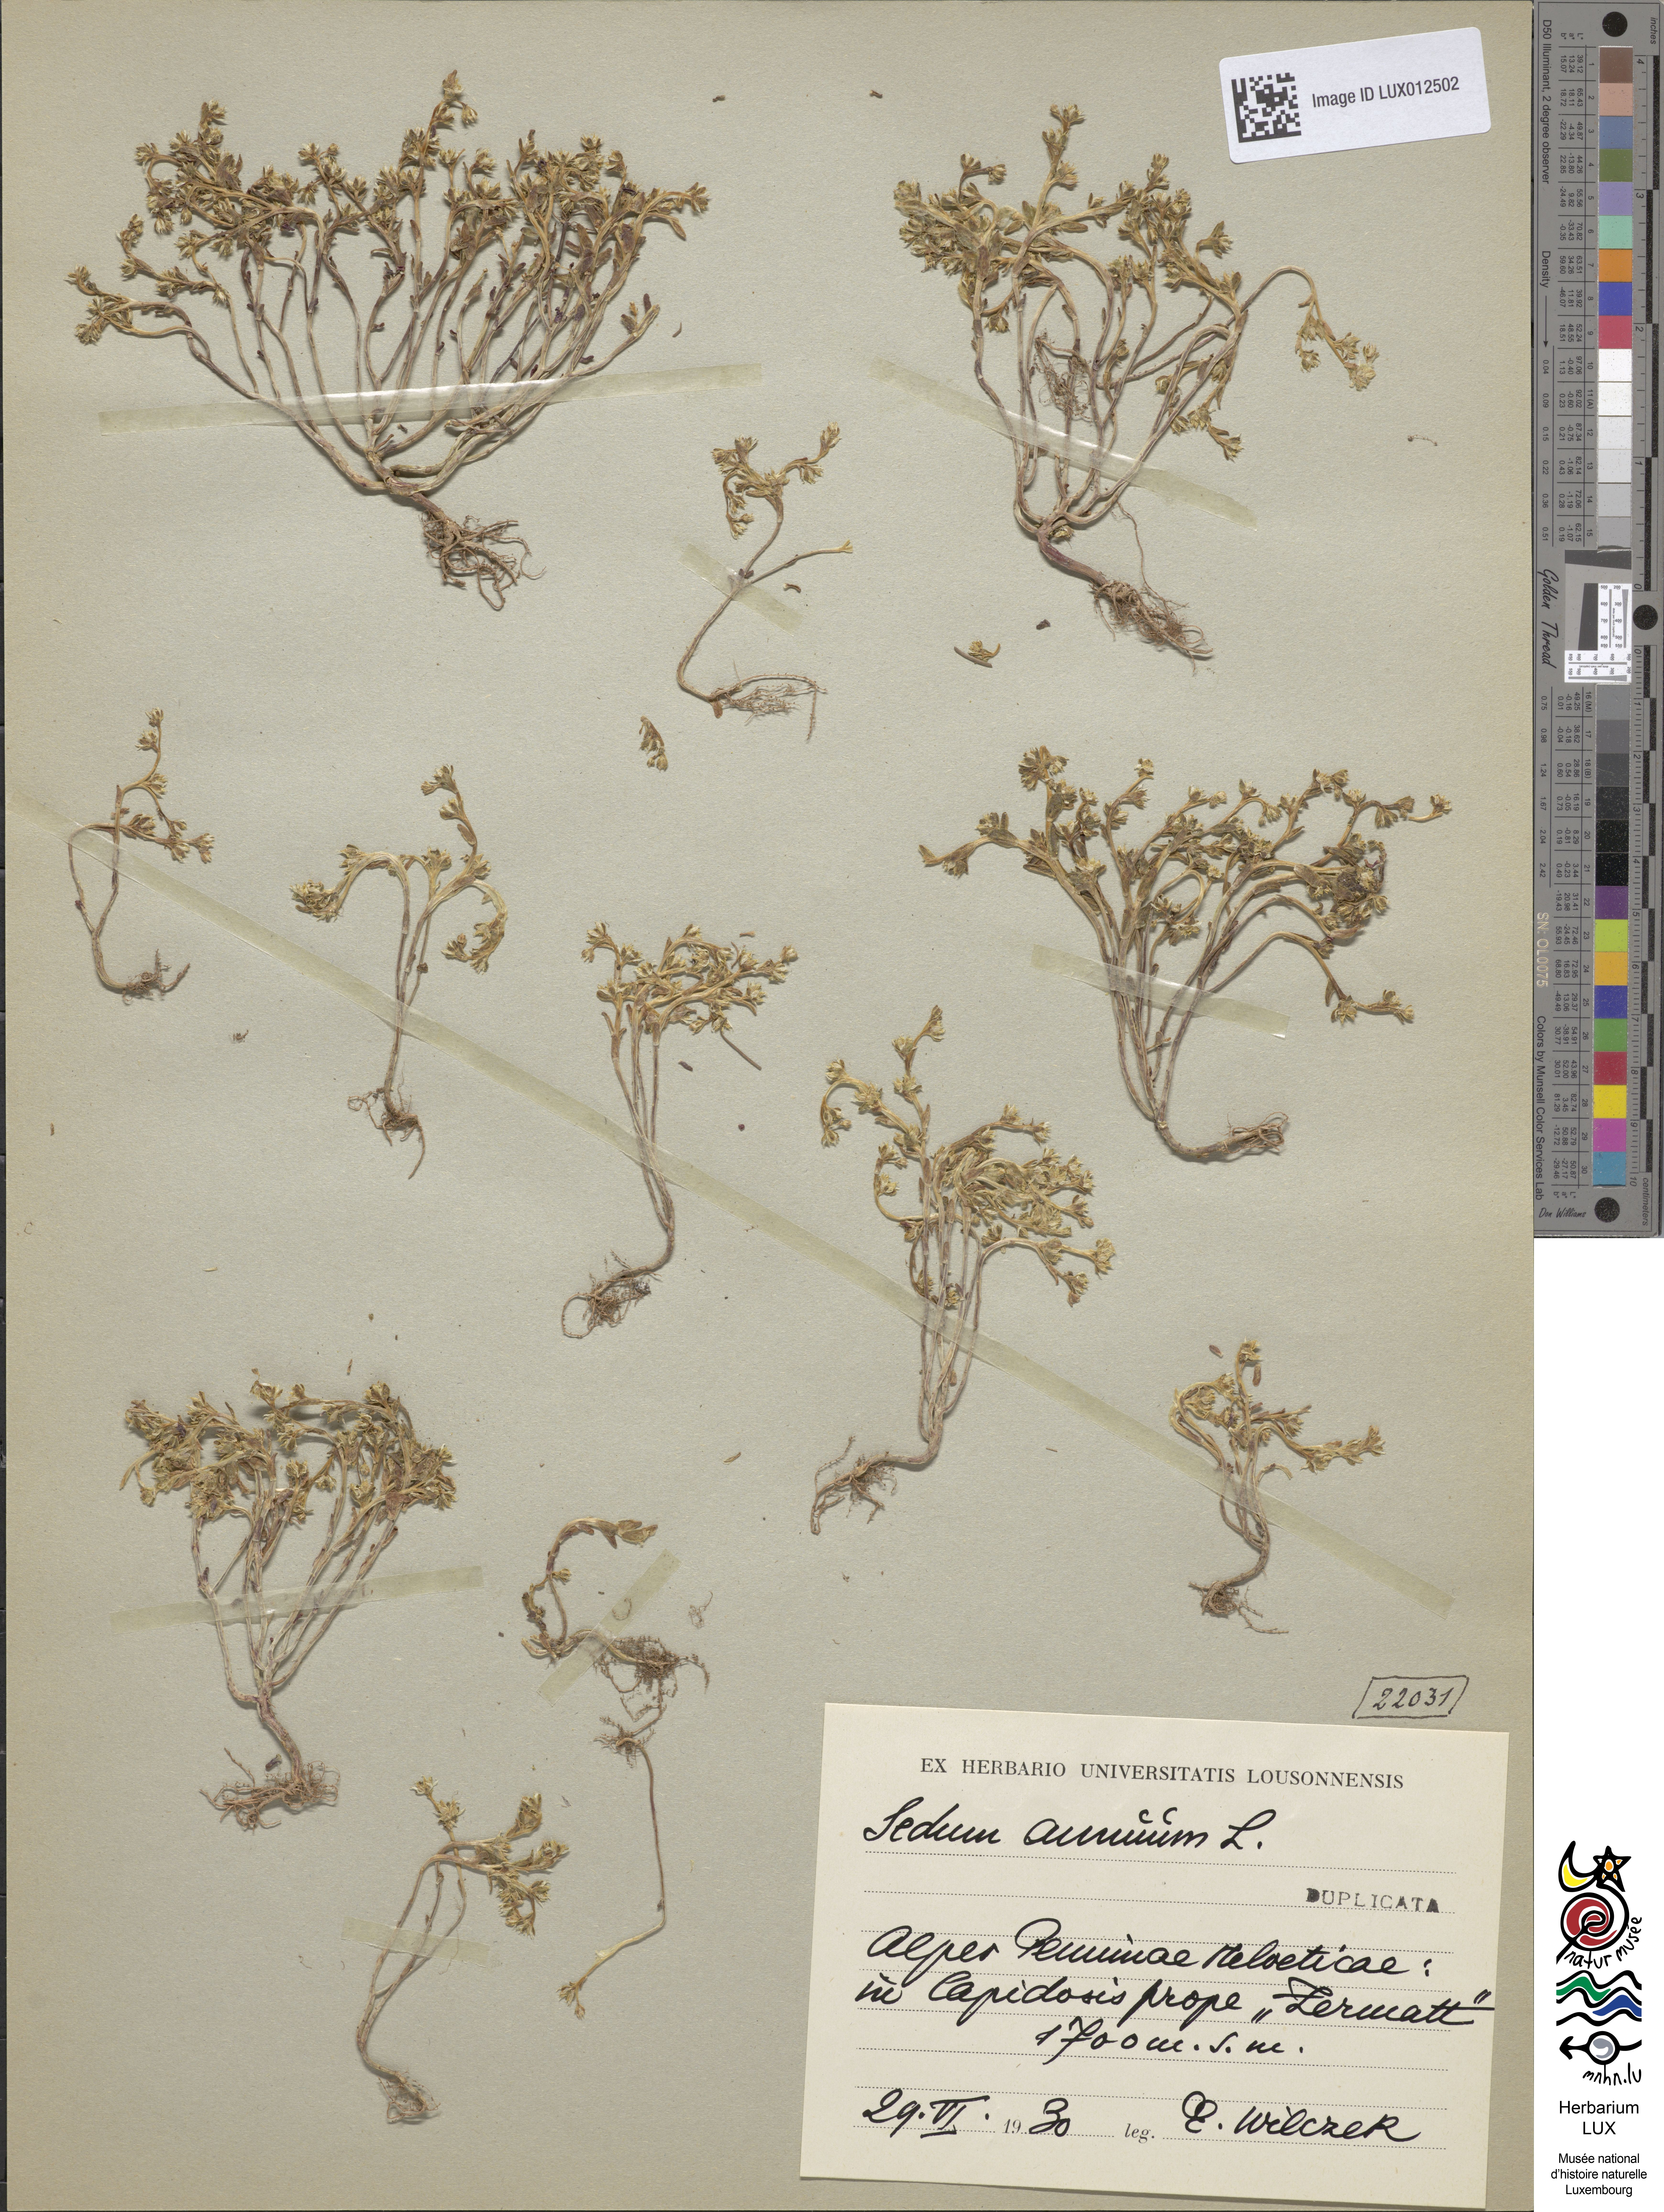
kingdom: Plantae
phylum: Tracheophyta
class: Magnoliopsida
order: Saxifragales
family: Crassulaceae
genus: Sedum
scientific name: Sedum annuum
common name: Annual stonecrop
